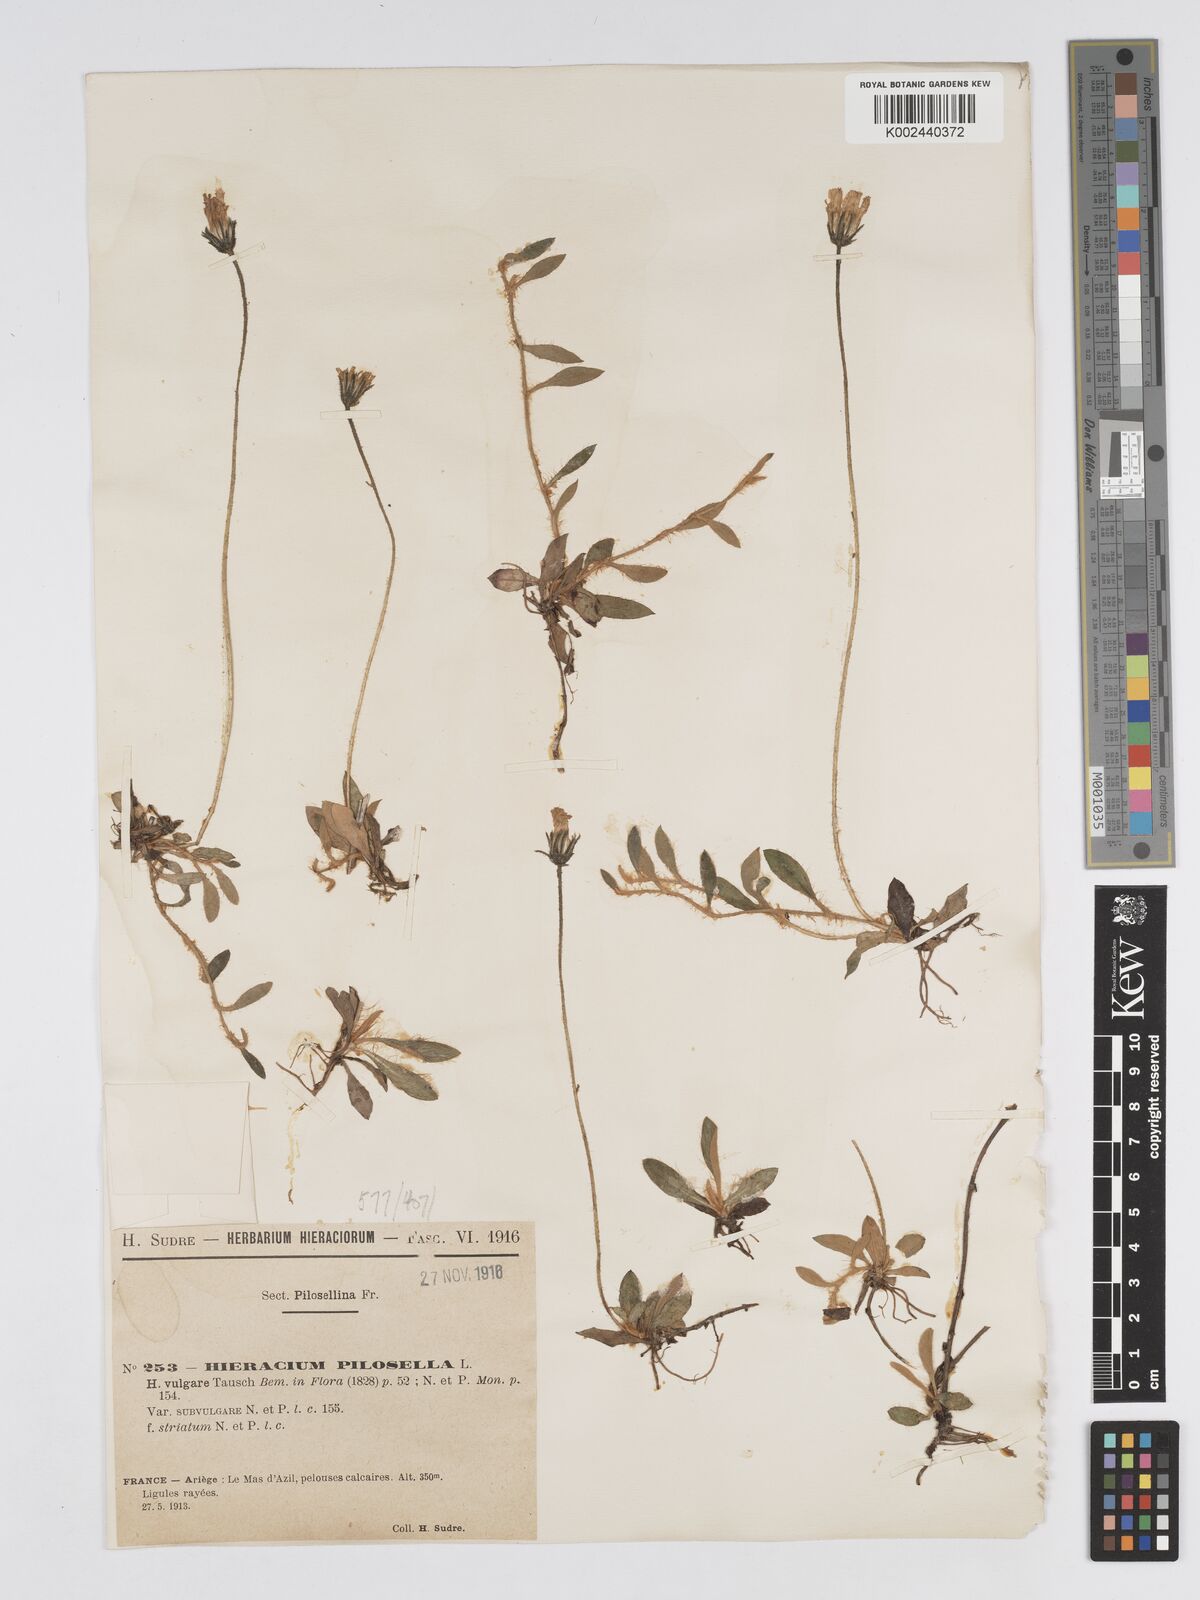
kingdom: Plantae
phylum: Tracheophyta
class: Magnoliopsida
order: Asterales
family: Asteraceae
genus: Pilosella
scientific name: Pilosella officinarum
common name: Mouse-ear hawkweed
